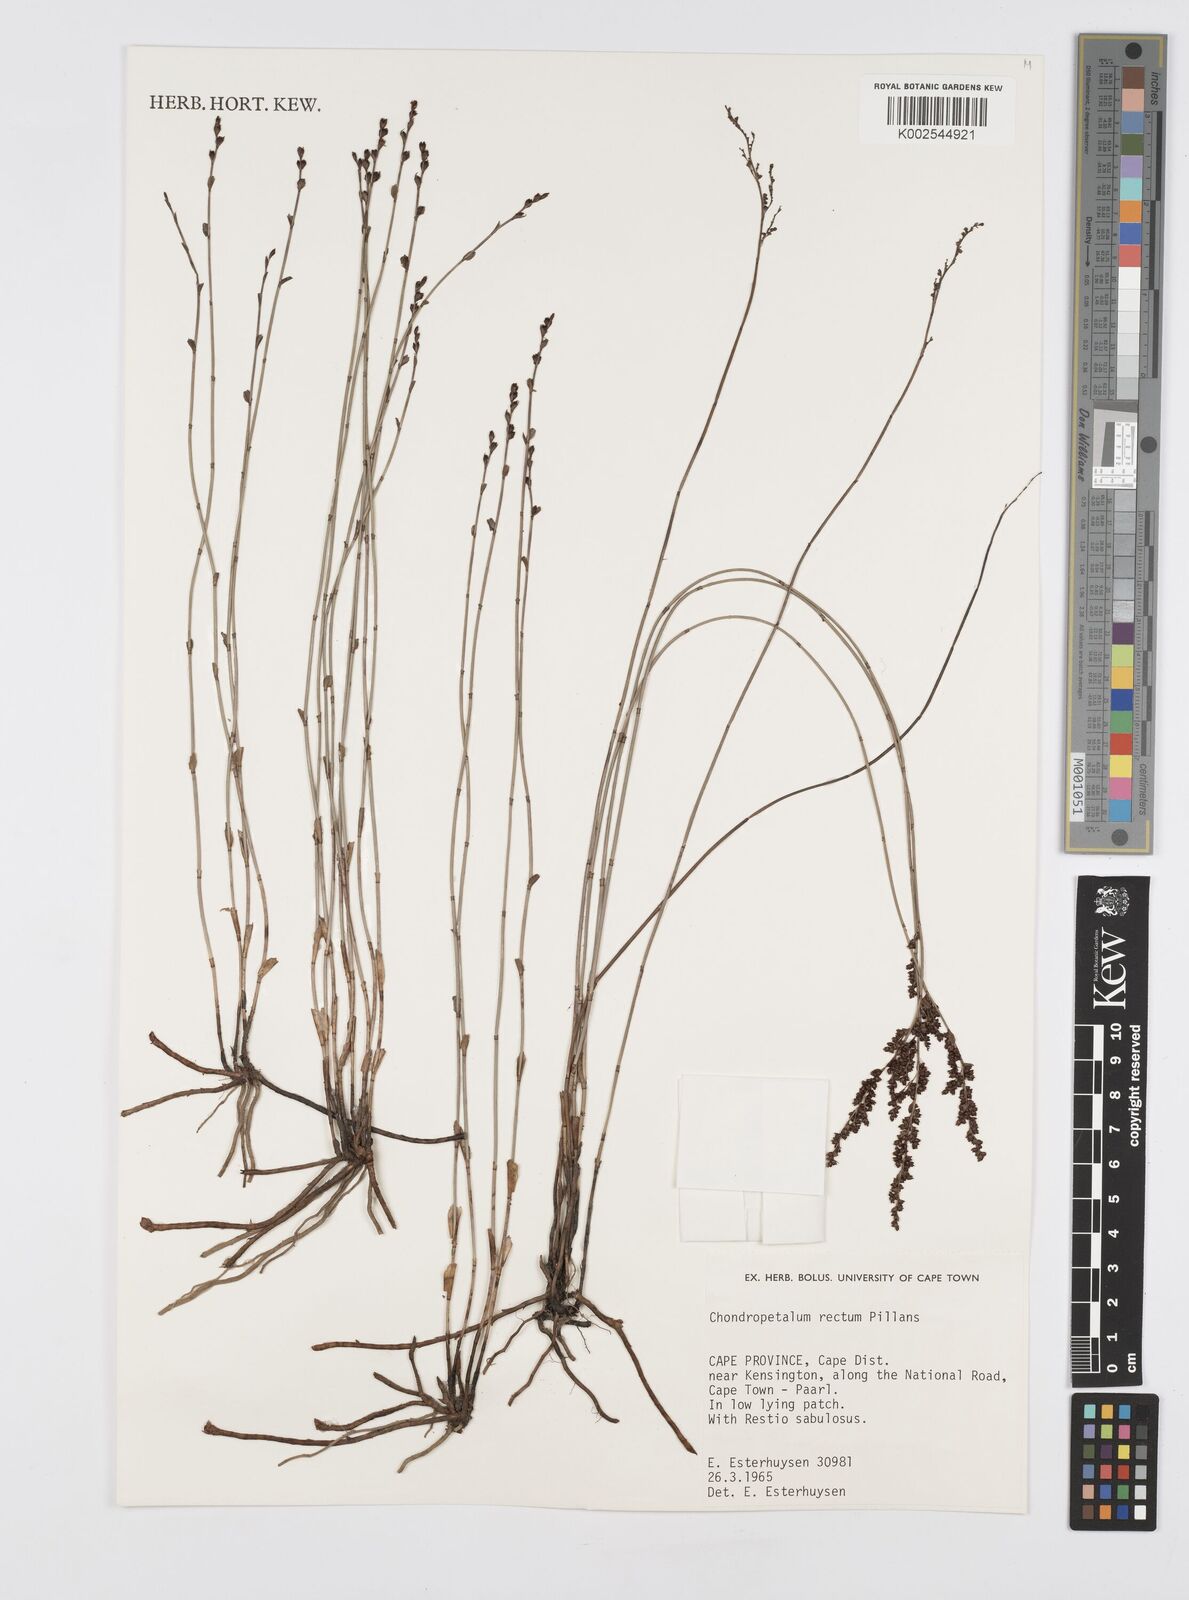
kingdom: Plantae
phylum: Tracheophyta
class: Liliopsida
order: Poales
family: Restionaceae
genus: Elegia
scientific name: Elegia recta
